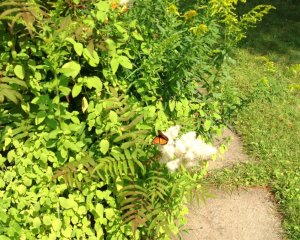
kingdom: Animalia
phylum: Arthropoda
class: Insecta
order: Lepidoptera
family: Nymphalidae
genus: Limenitis
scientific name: Limenitis archippus
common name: Viceroy
